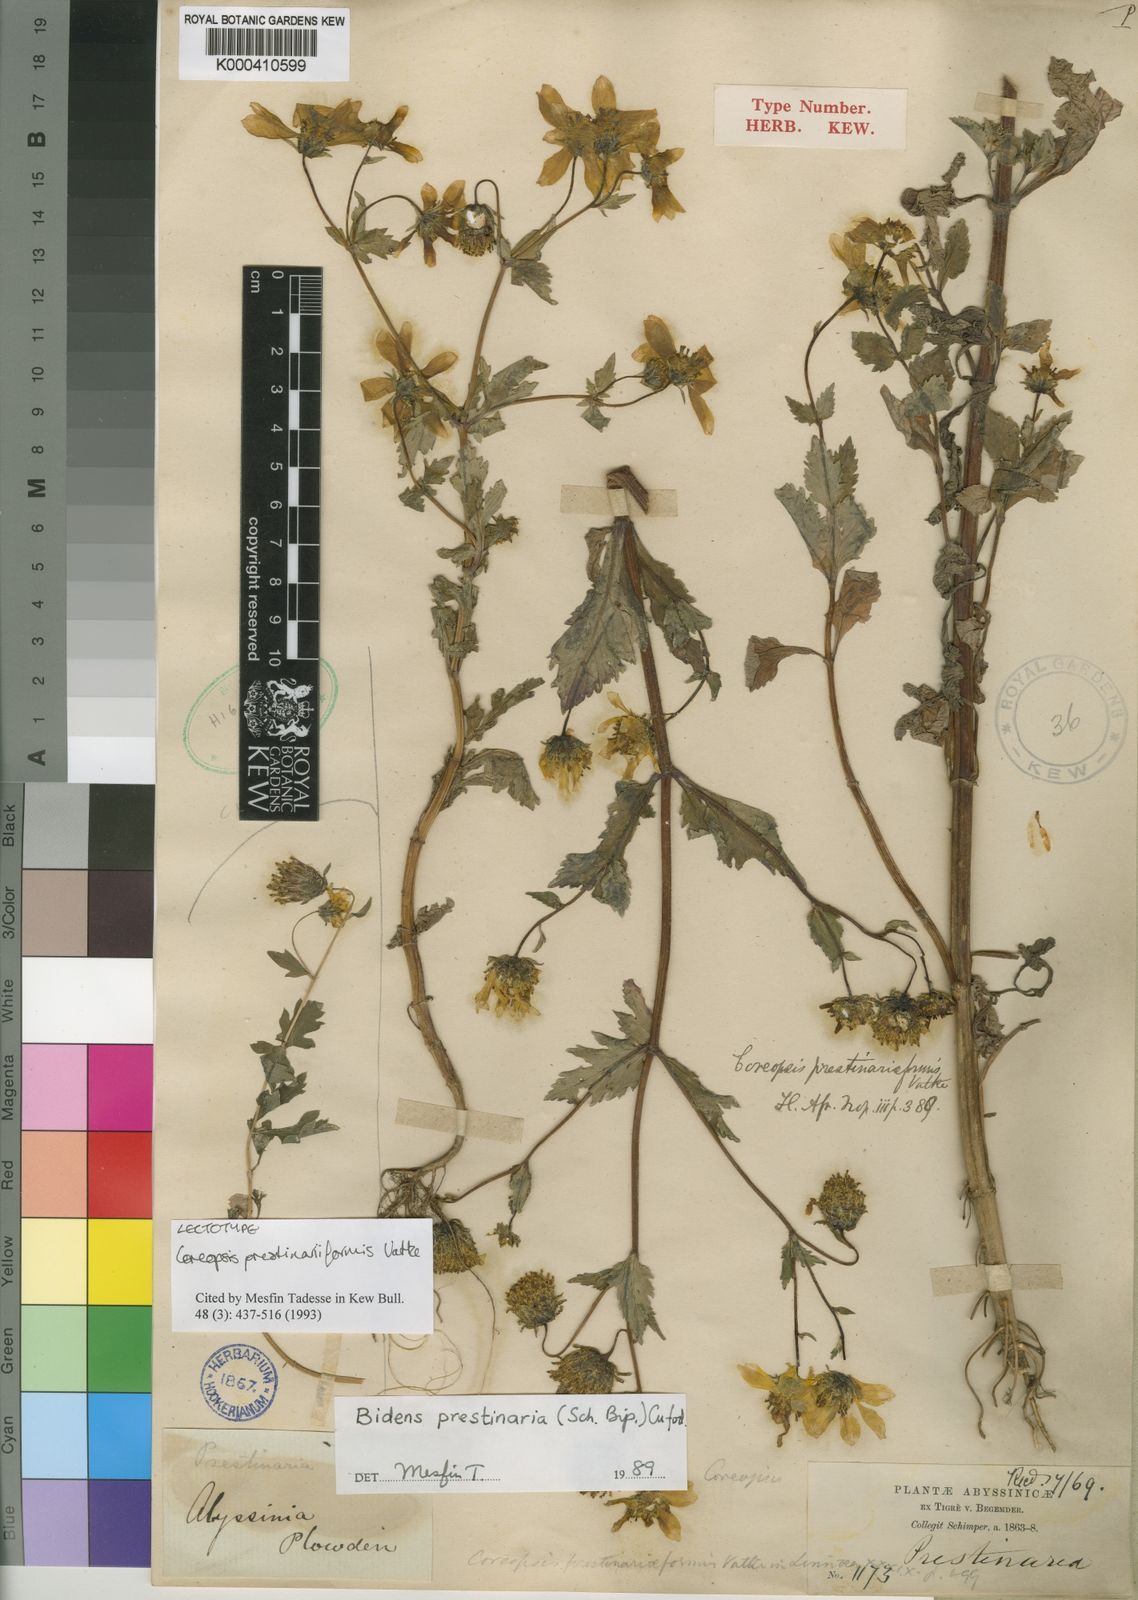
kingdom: Plantae
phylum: Tracheophyta
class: Magnoliopsida
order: Asterales
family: Asteraceae
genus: Bidens
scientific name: Bidens prestinaria
